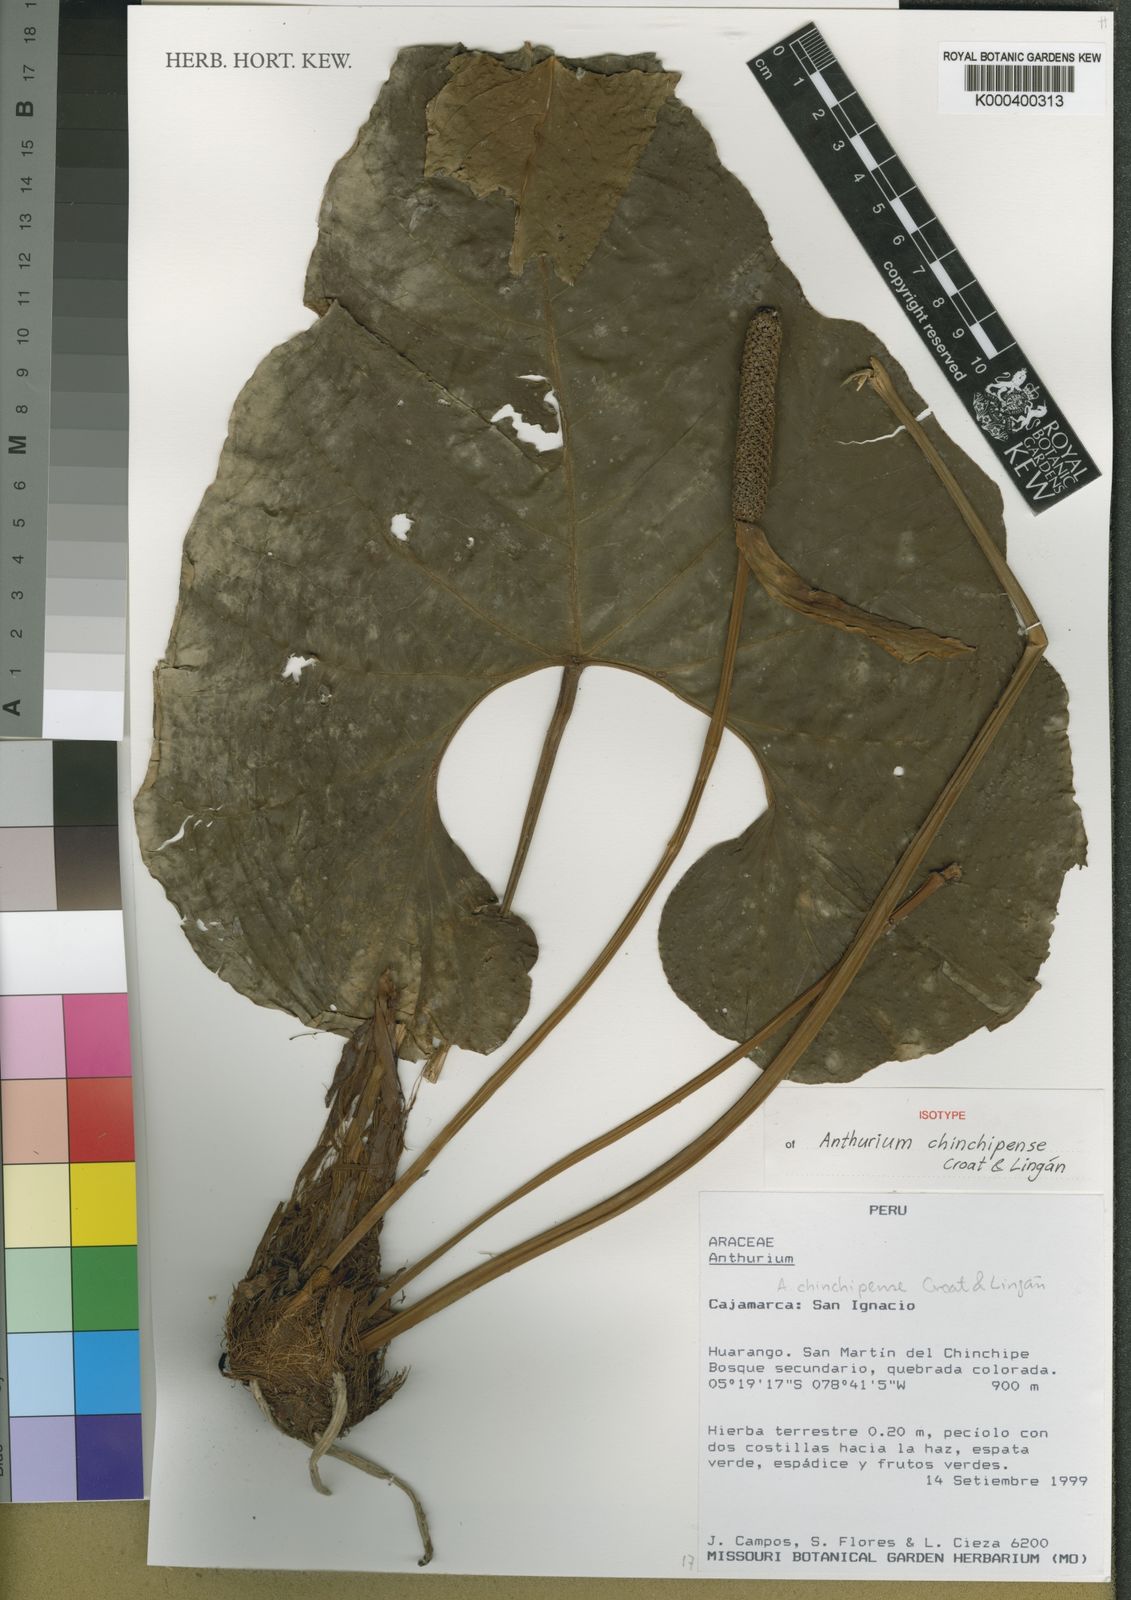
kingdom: Plantae
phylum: Tracheophyta
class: Liliopsida
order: Alismatales
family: Araceae
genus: Anthurium
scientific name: Anthurium
